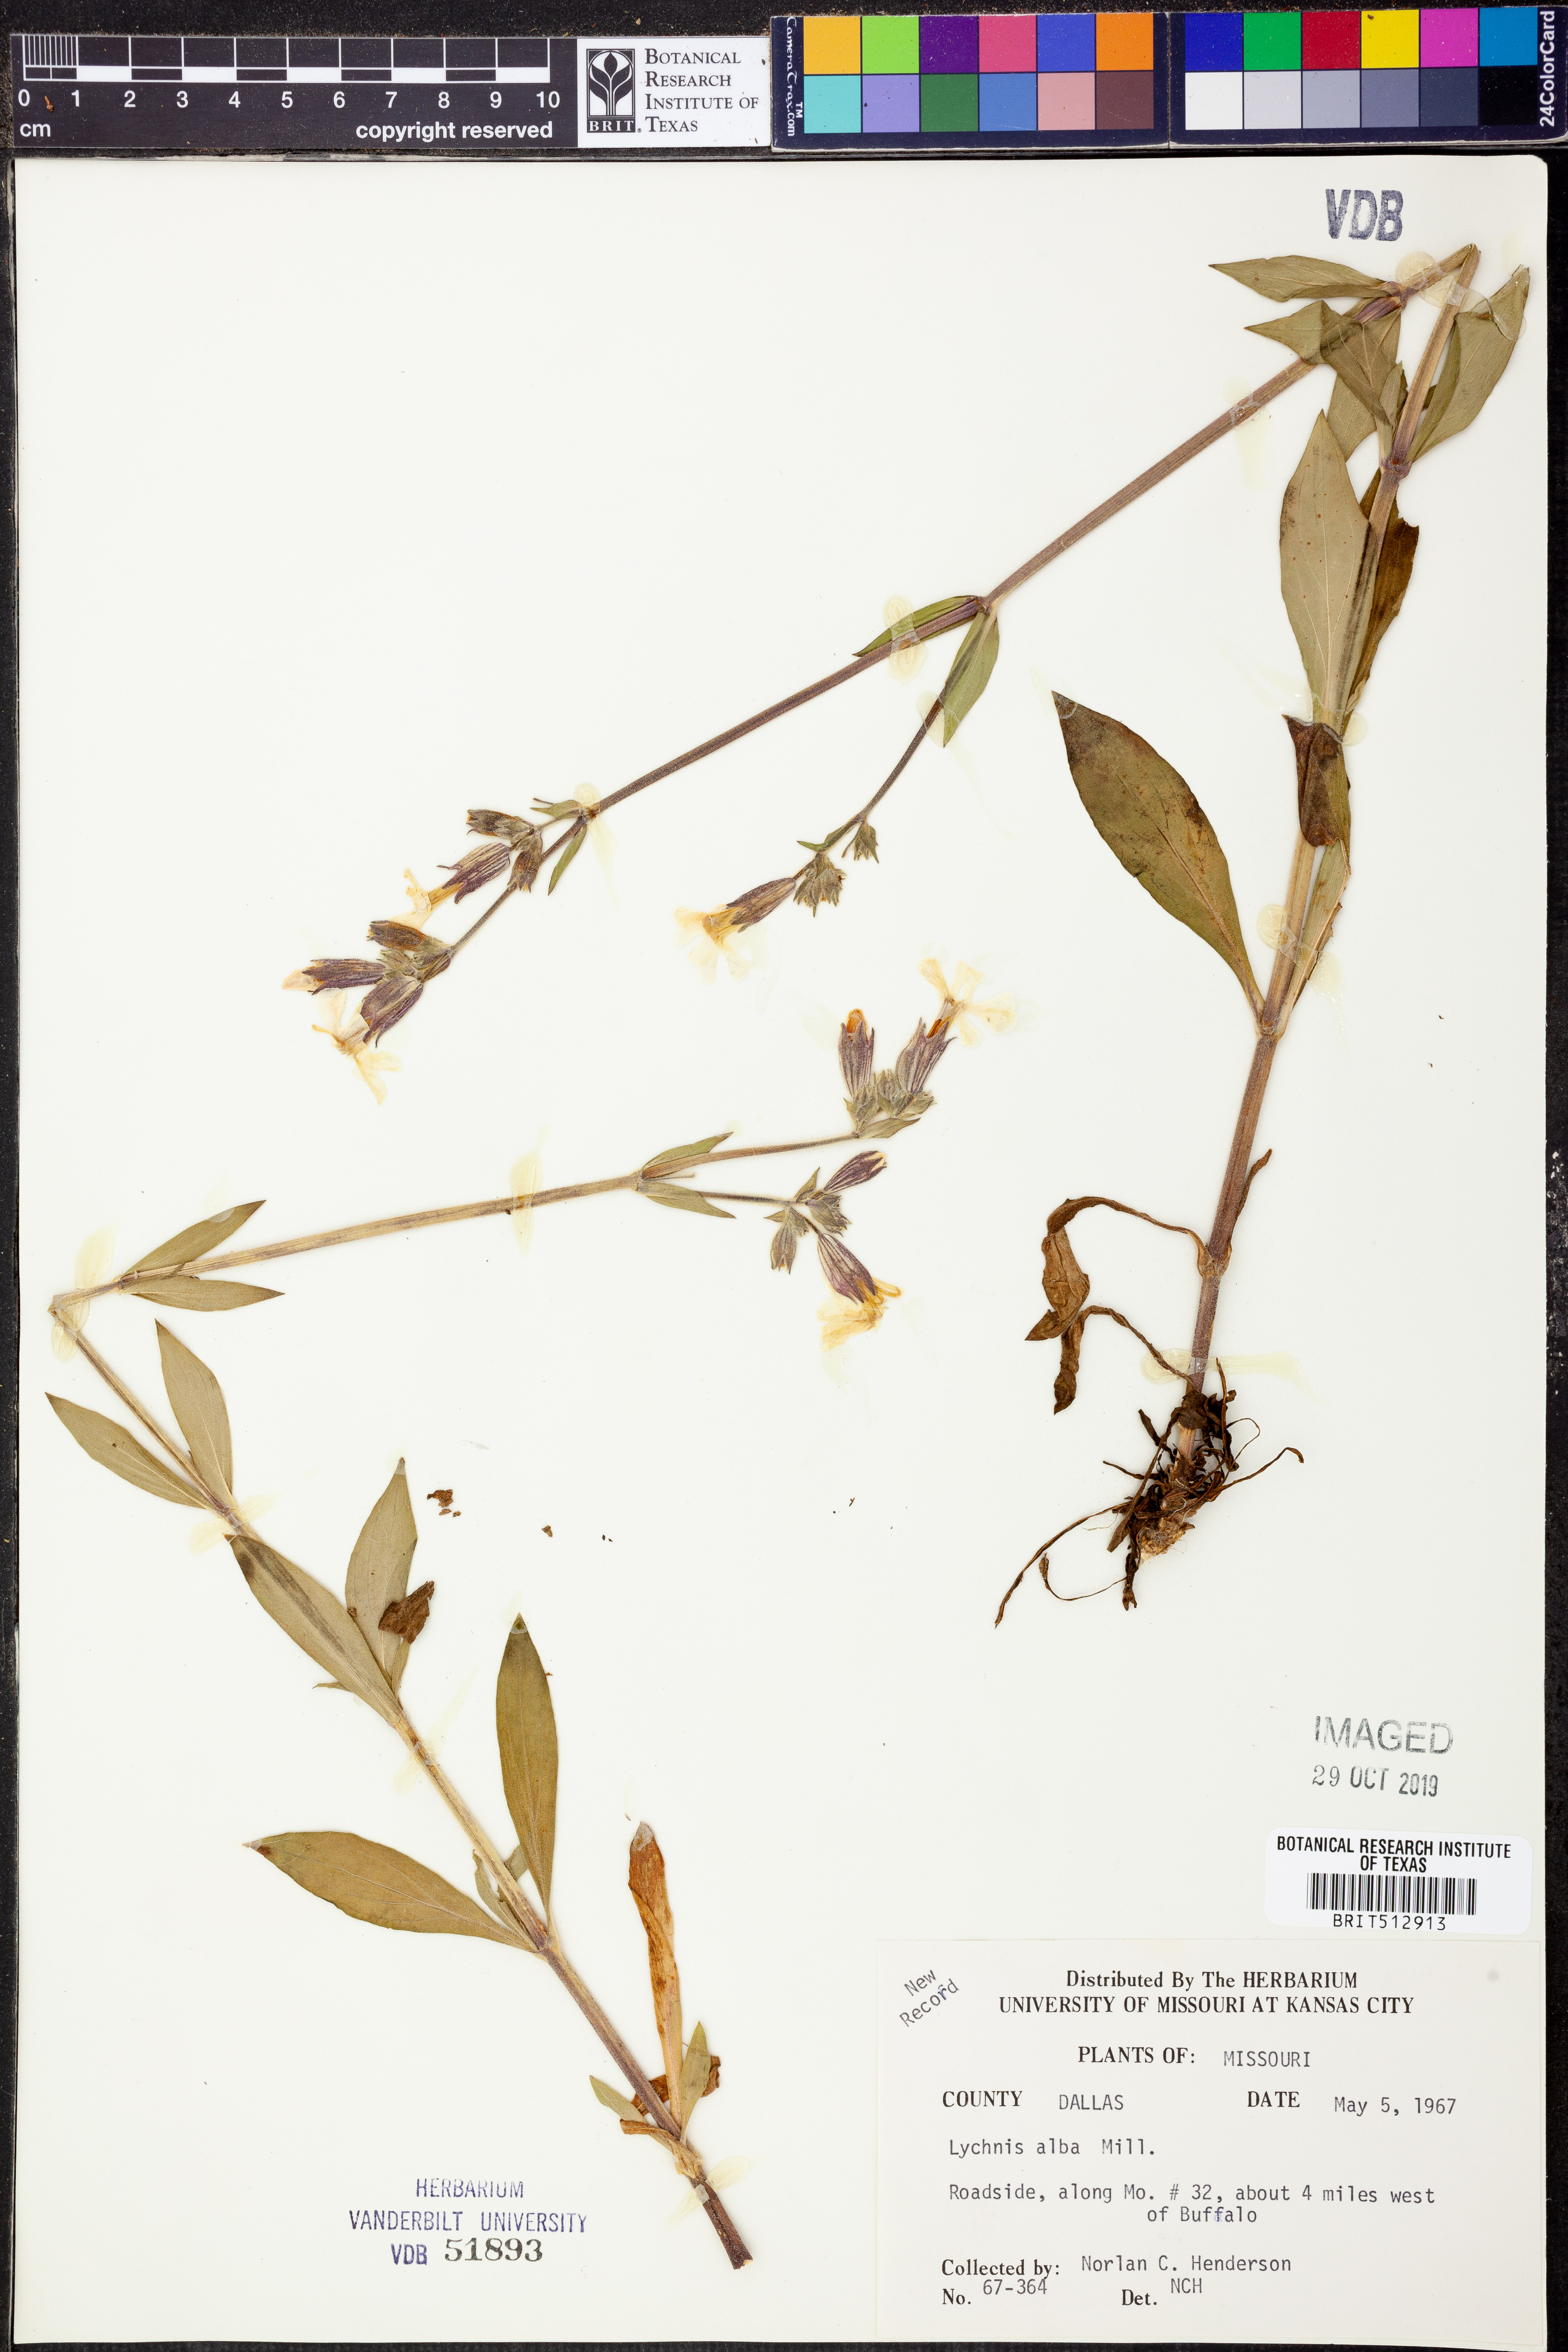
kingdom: Plantae
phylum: Tracheophyta
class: Magnoliopsida
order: Caryophyllales
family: Caryophyllaceae
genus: Silene
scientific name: Silene latifolia
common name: White campion
